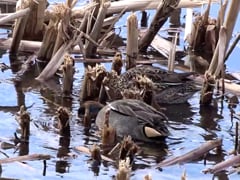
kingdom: Animalia
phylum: Chordata
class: Aves
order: Anseriformes
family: Anatidae
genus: Anas
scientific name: Anas crecca
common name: Eurasian teal
